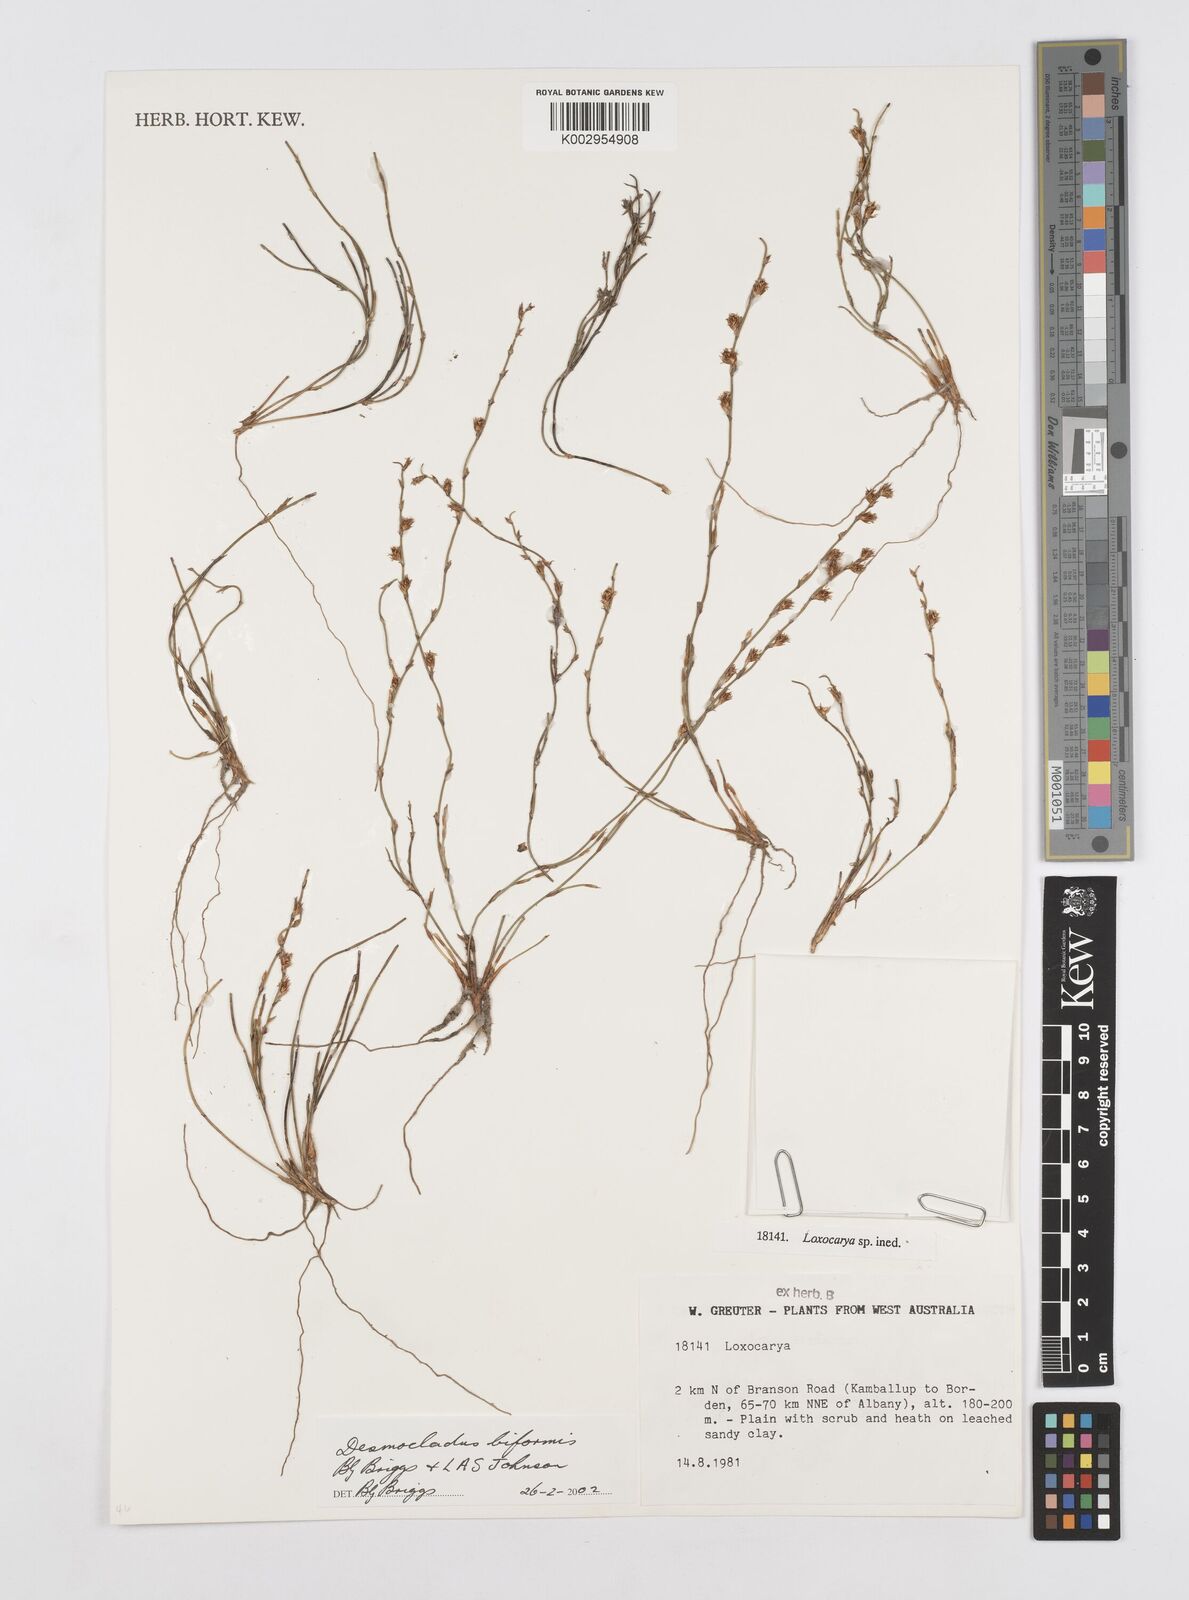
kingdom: Plantae
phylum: Tracheophyta
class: Liliopsida
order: Poales
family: Restionaceae
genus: Desmocladus
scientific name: Desmocladus biformis
